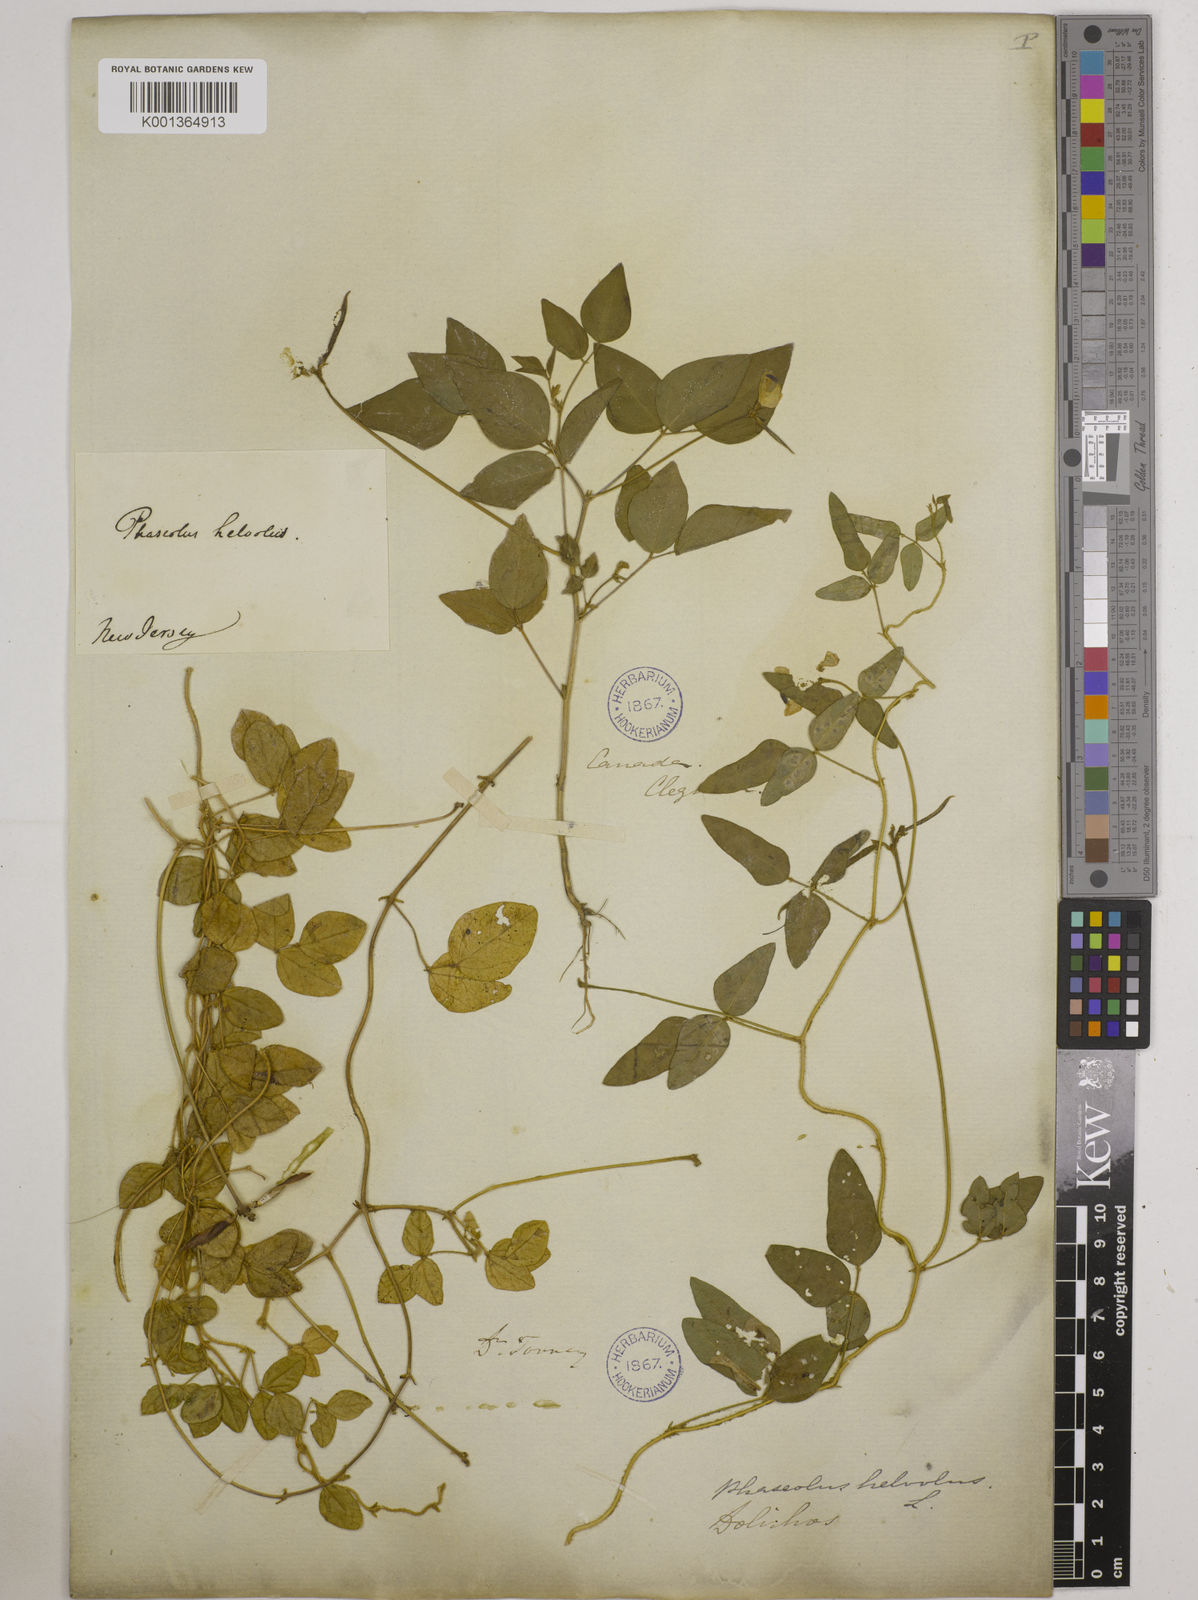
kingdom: Plantae
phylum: Tracheophyta
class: Magnoliopsida
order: Fabales
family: Fabaceae
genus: Strophostyles
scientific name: Strophostyles
